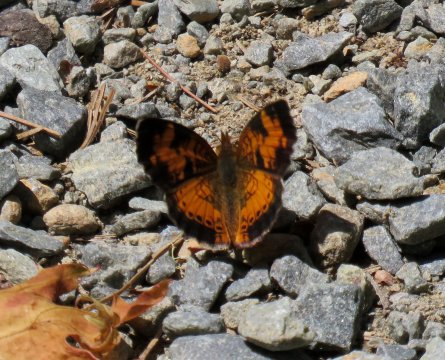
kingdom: Animalia
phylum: Arthropoda
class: Insecta
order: Lepidoptera
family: Nymphalidae
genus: Phyciodes
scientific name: Phyciodes tharos
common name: Northern Crescent
